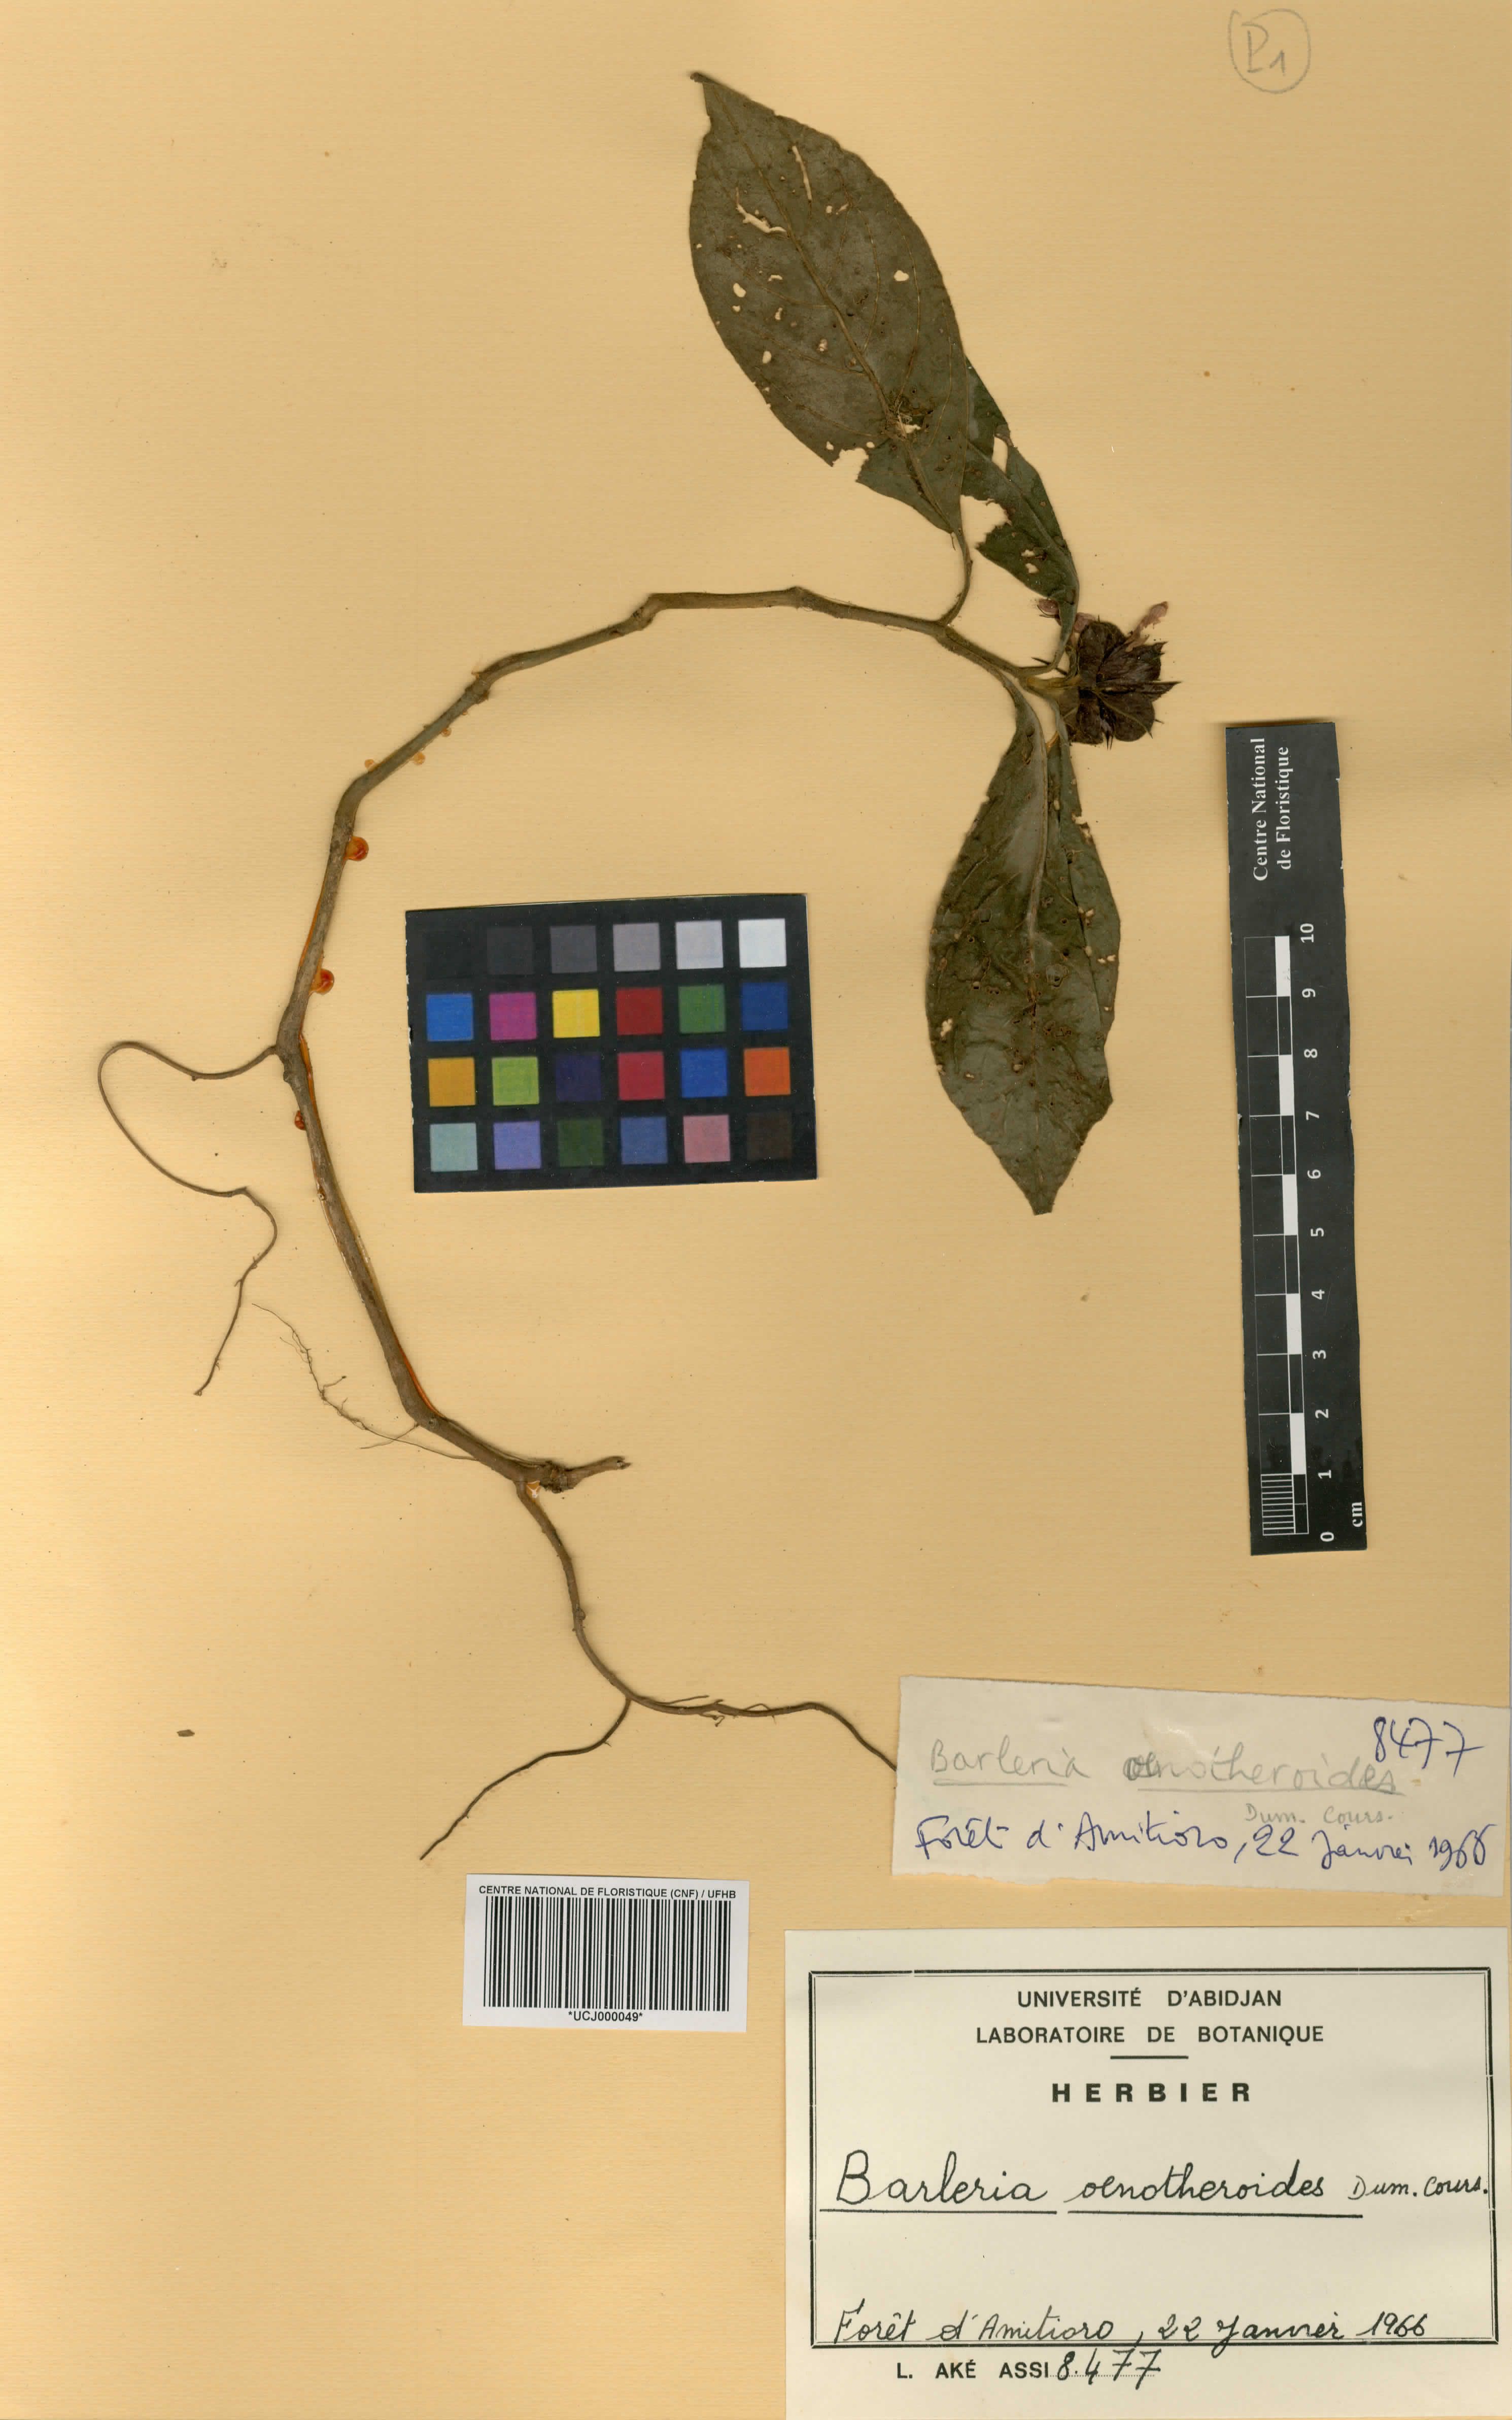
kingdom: Plantae
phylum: Tracheophyta
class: Magnoliopsida
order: Lamiales
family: Acanthaceae
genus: Barleria
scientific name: Barleria oenotheroides
